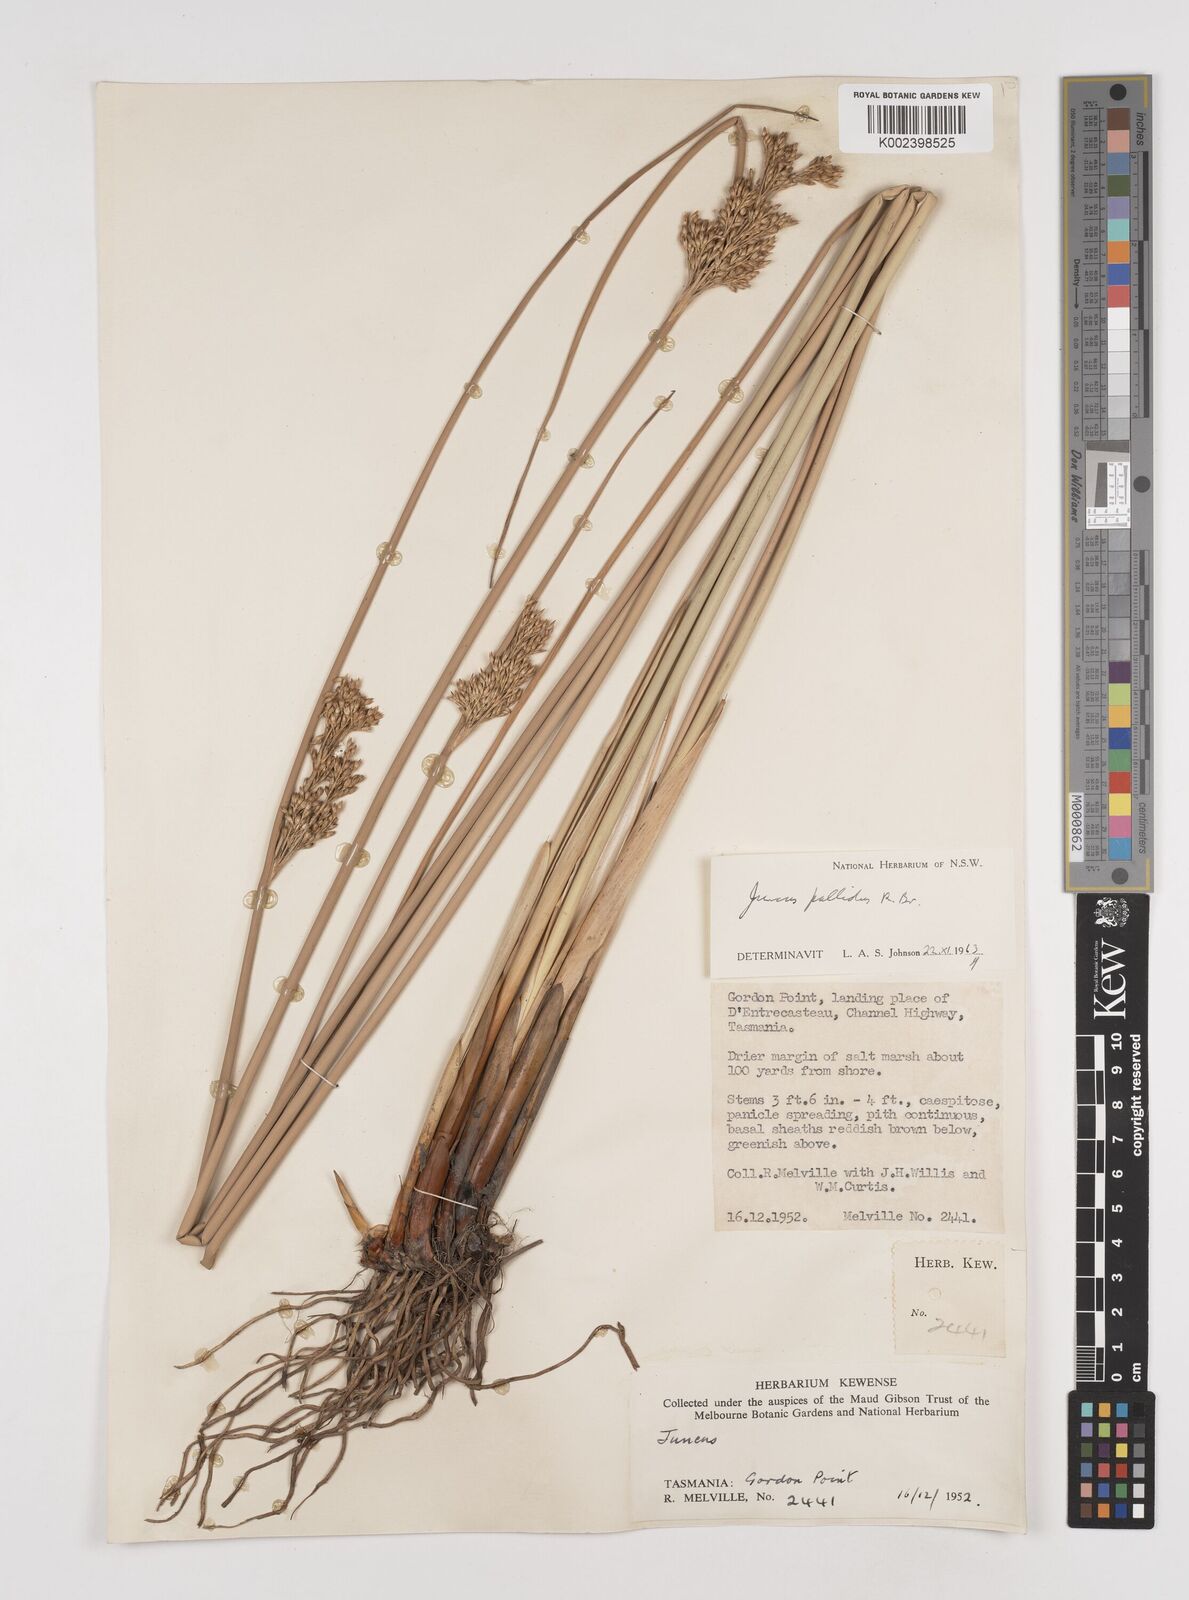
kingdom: Plantae
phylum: Tracheophyta
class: Liliopsida
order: Poales
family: Juncaceae
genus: Juncus
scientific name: Juncus pallidus
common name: Great soft-rush
